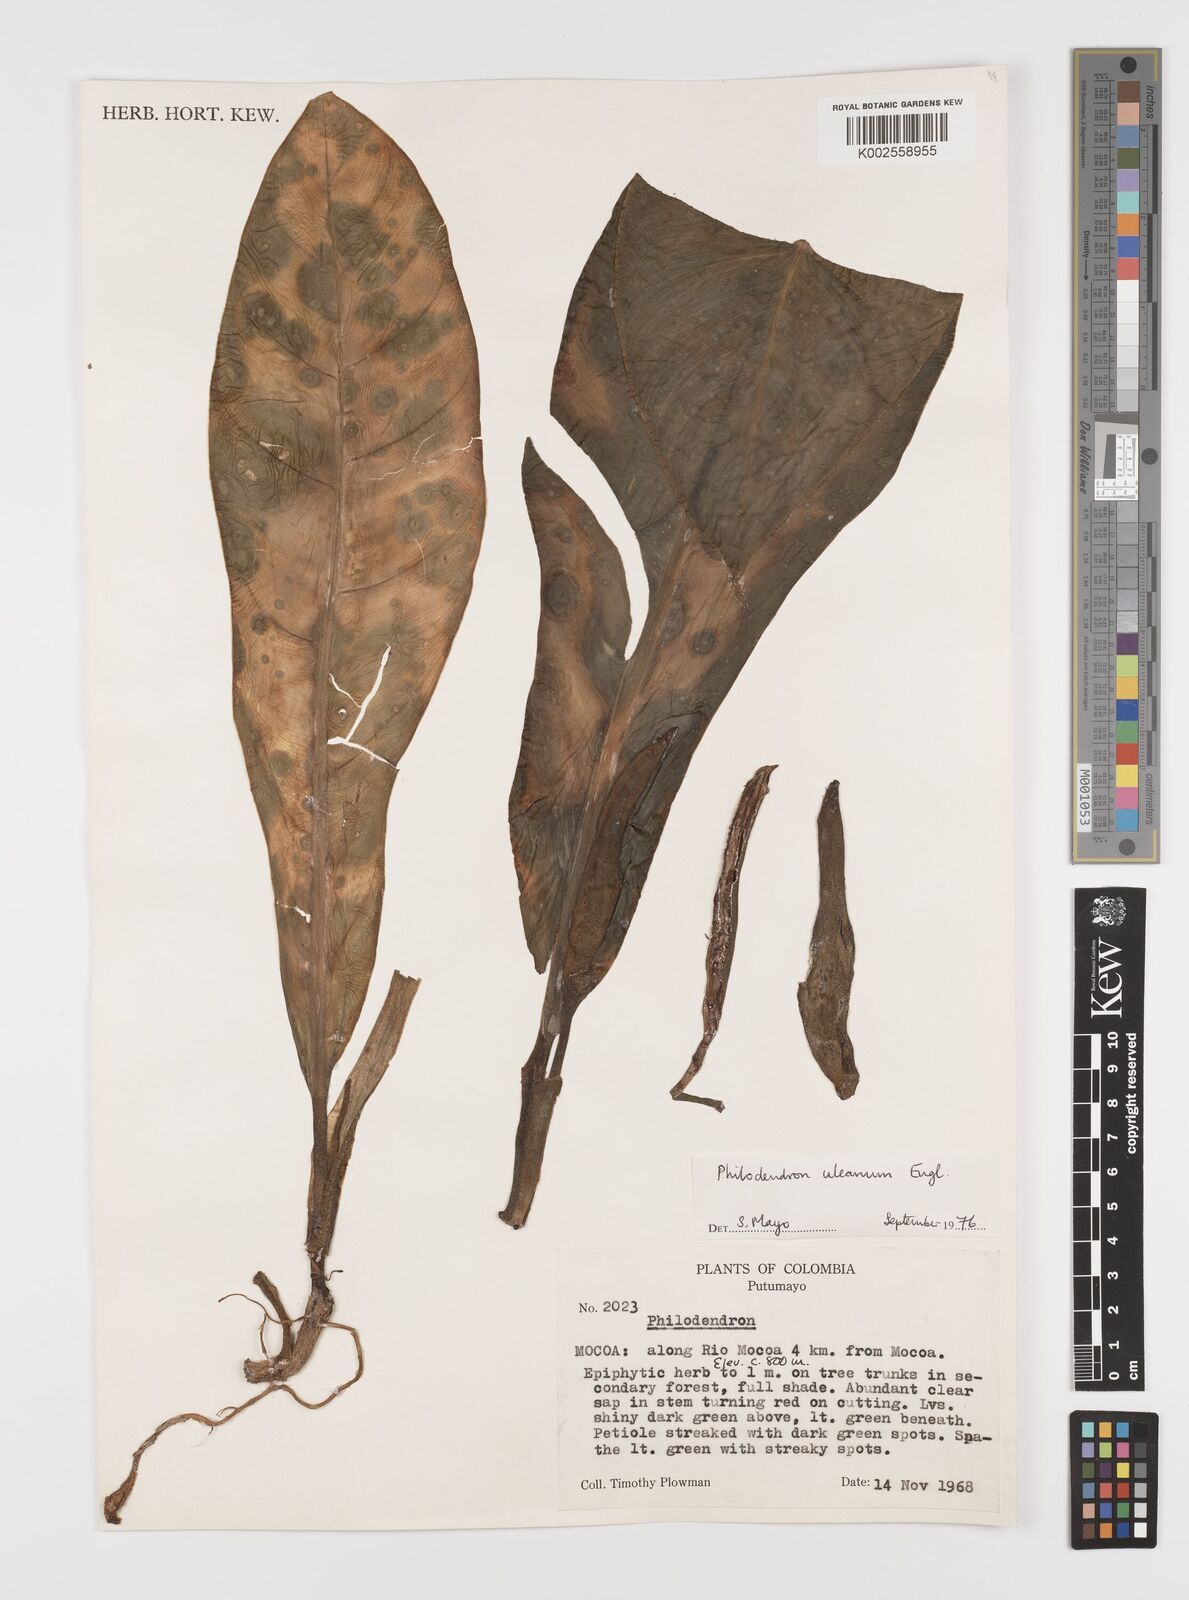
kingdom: Plantae
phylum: Tracheophyta
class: Liliopsida
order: Alismatales
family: Araceae
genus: Philodendron
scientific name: Philodendron heterophyllum
